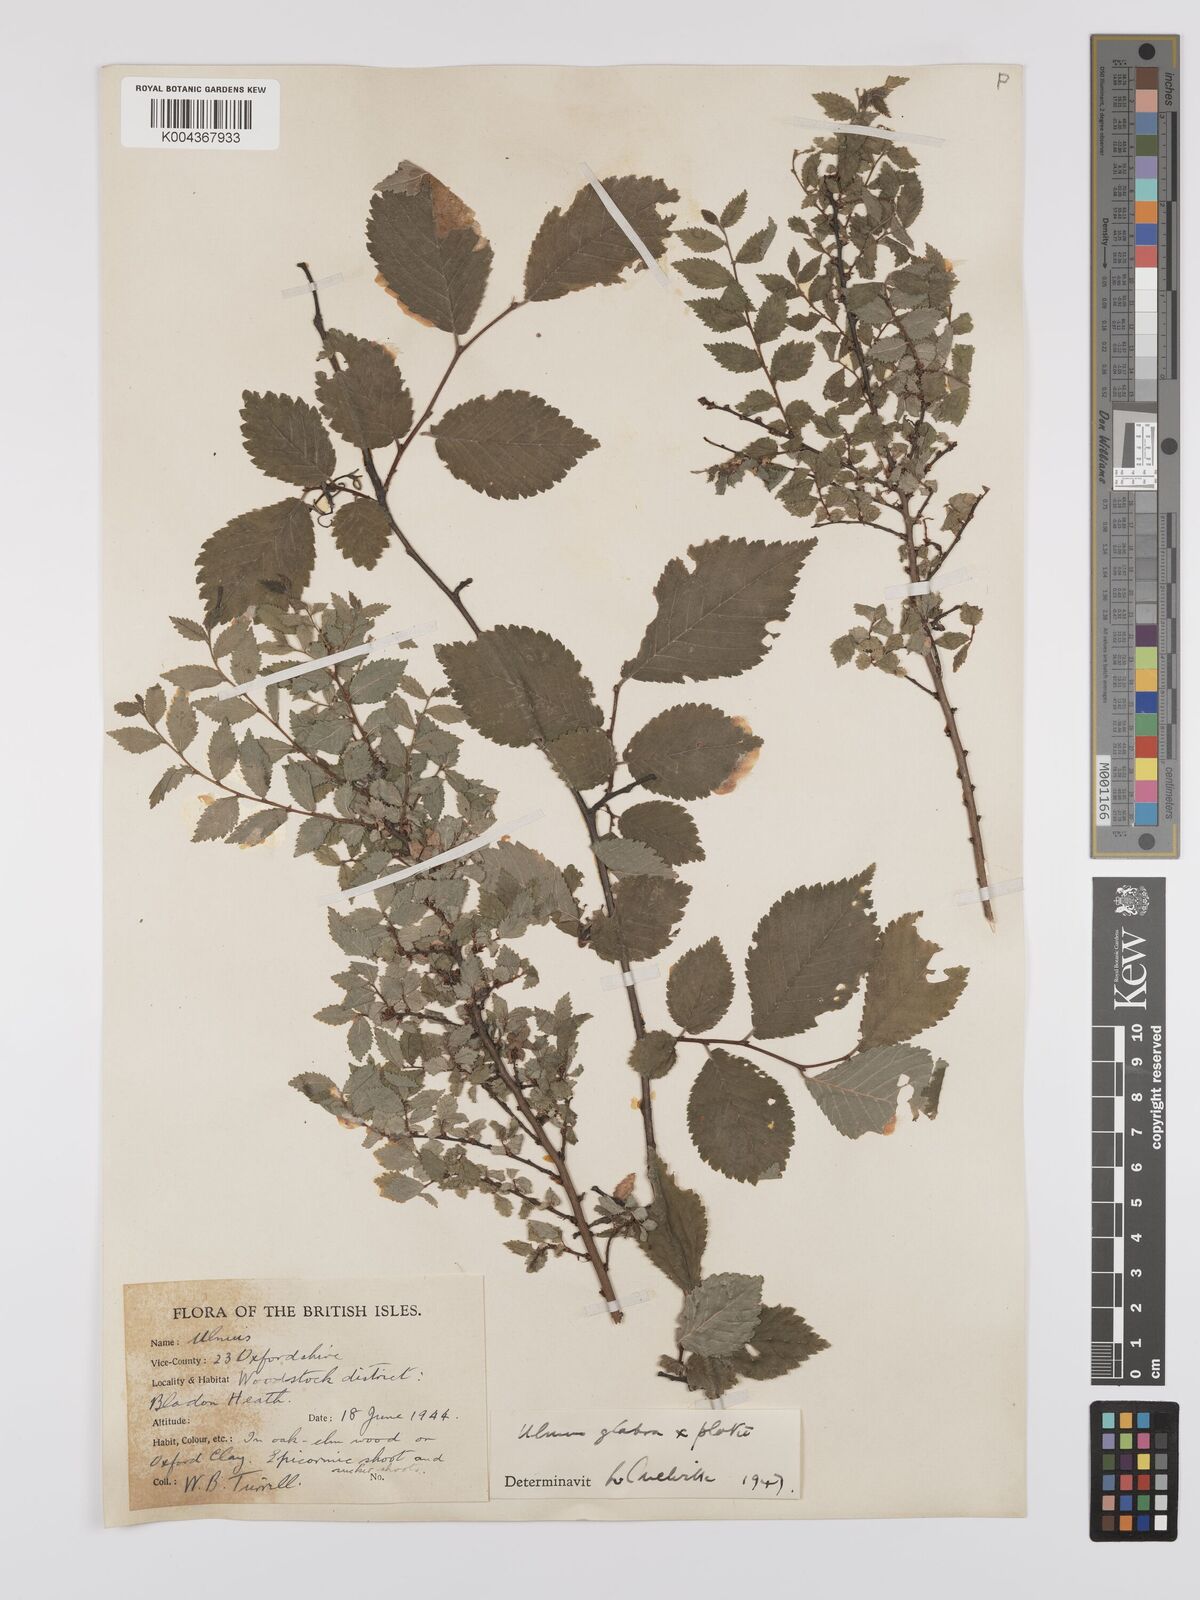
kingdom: Plantae
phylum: Tracheophyta
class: Magnoliopsida
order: Rosales
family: Ulmaceae
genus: Ulmus
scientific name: Ulmus
